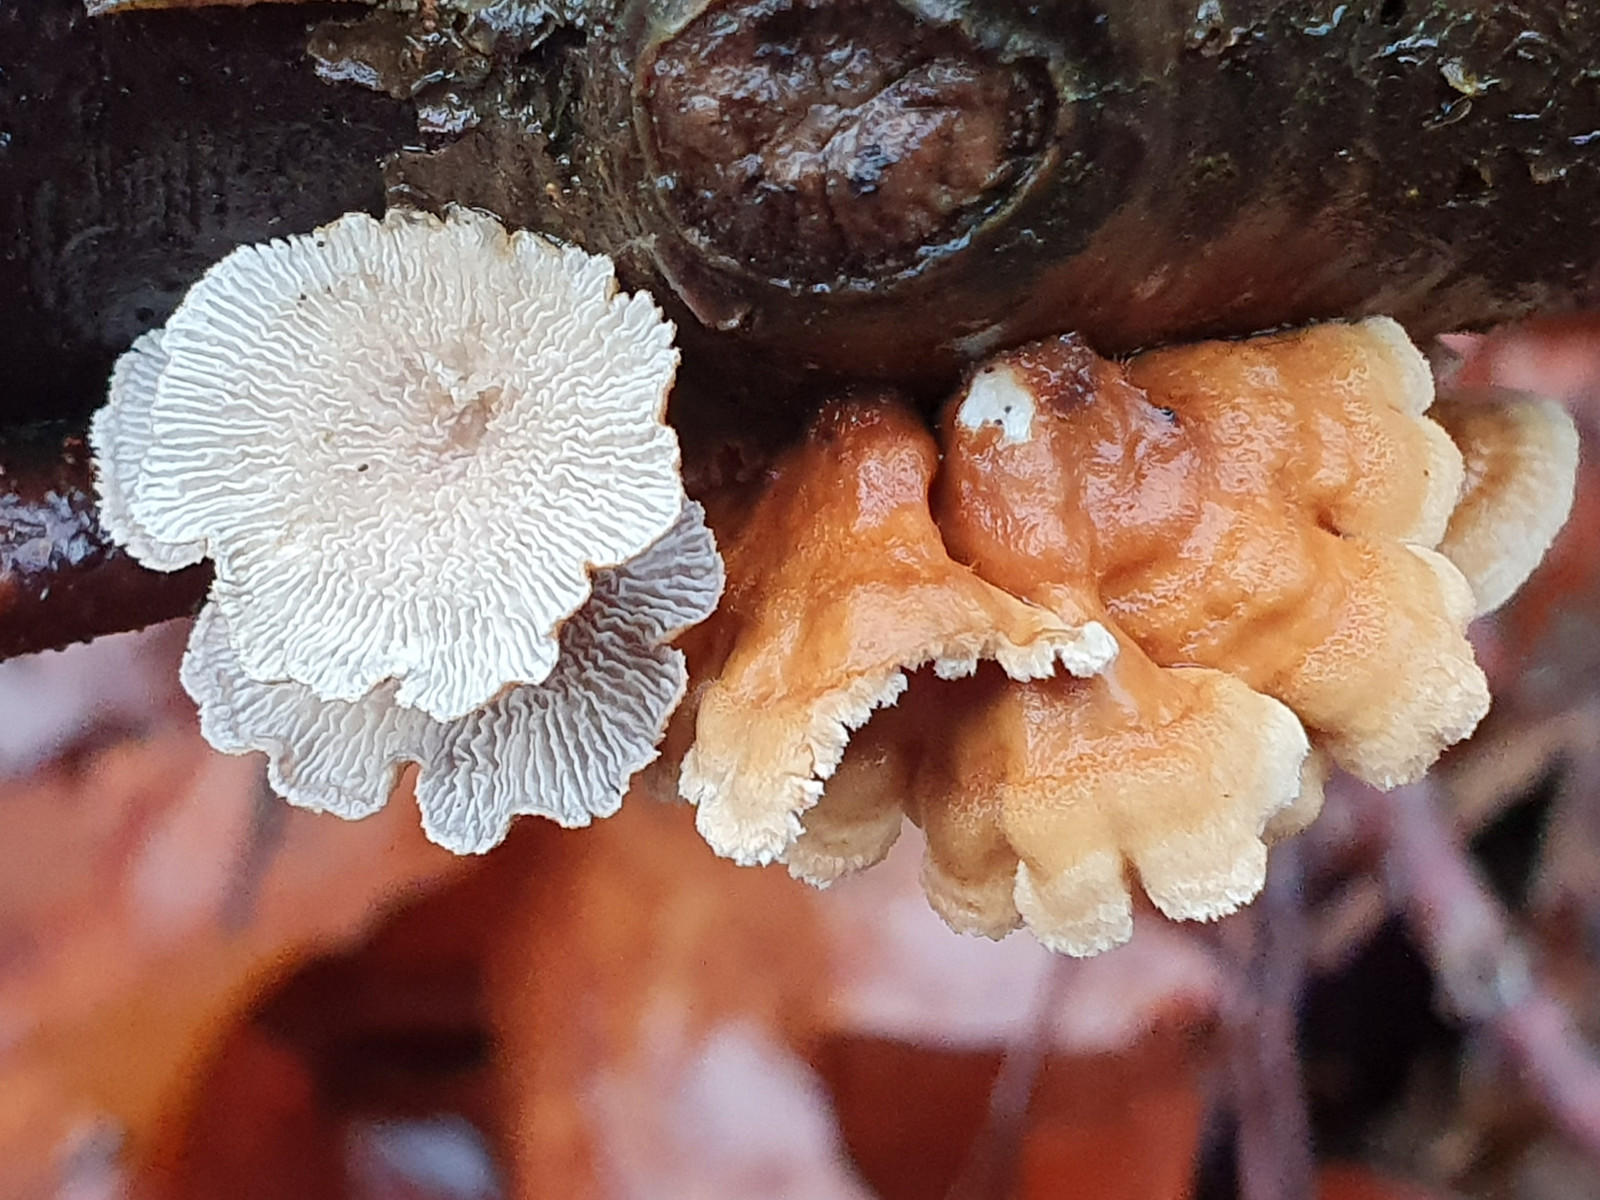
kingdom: Fungi
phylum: Basidiomycota
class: Agaricomycetes
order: Amylocorticiales
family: Amylocorticiaceae
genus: Plicaturopsis
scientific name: Plicaturopsis crispa
